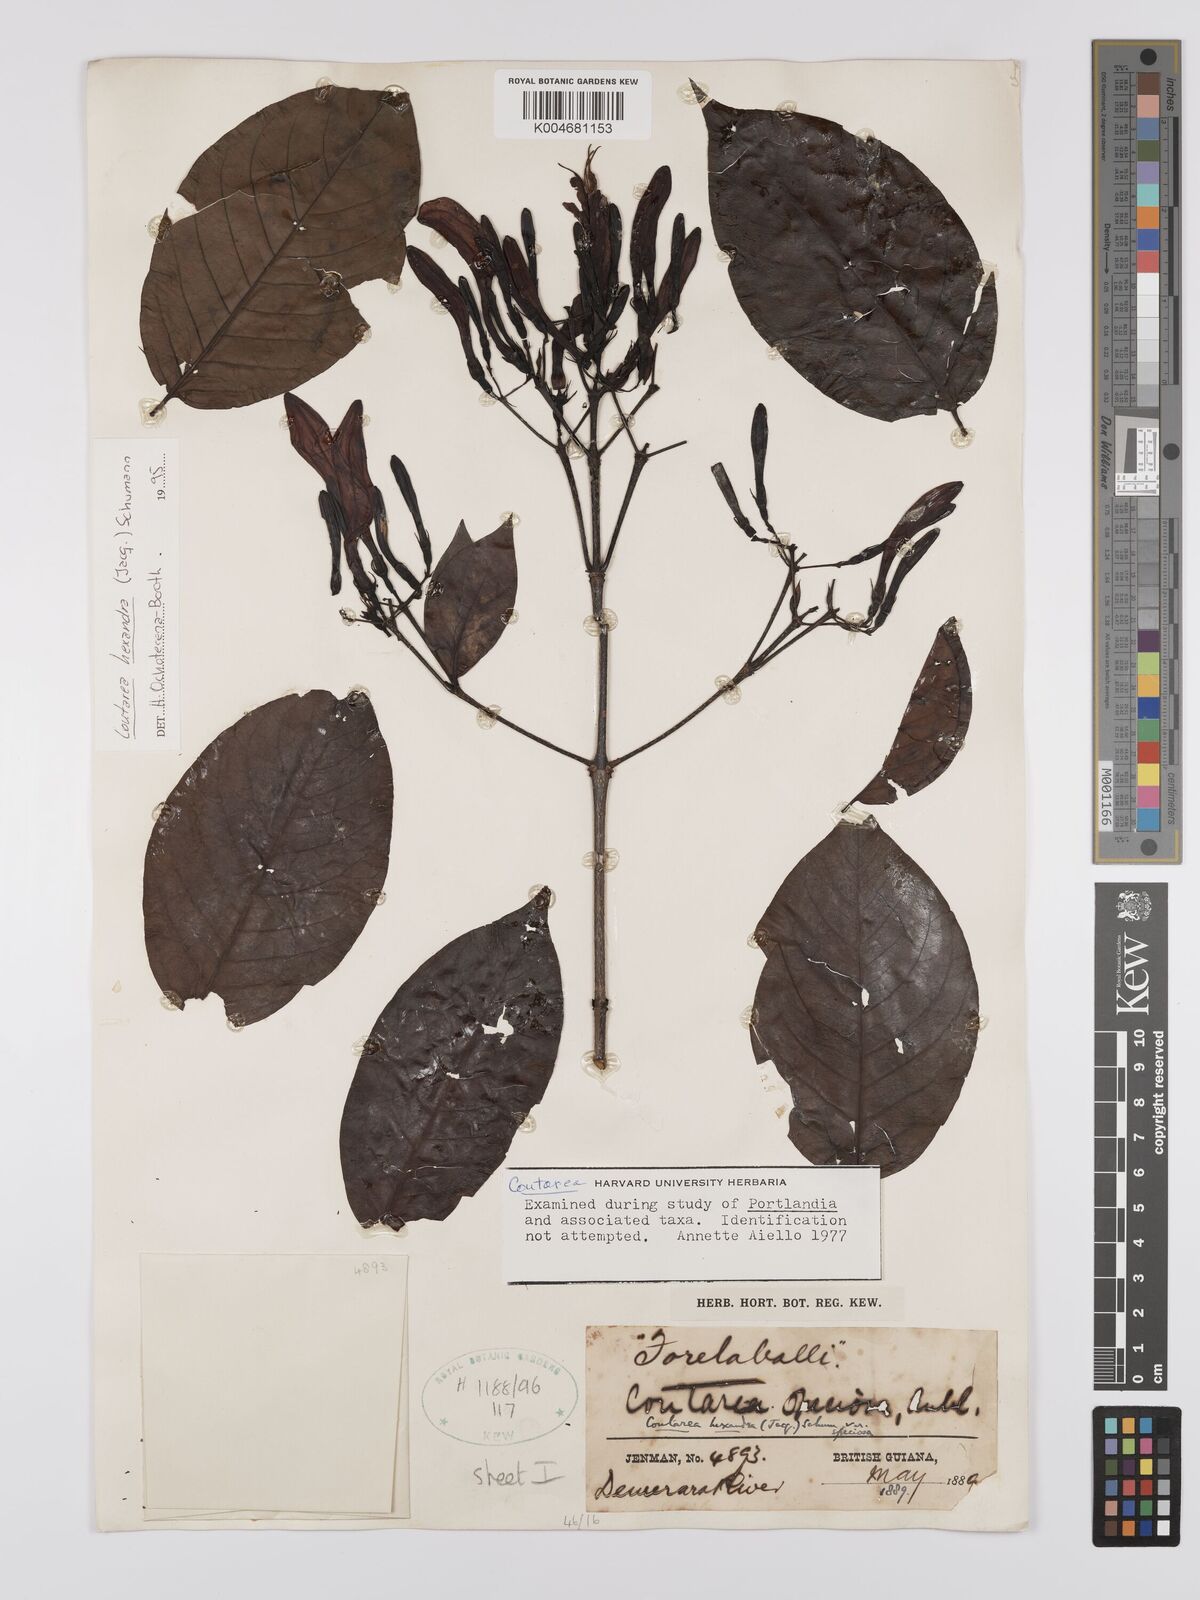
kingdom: Plantae
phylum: Tracheophyta
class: Magnoliopsida
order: Gentianales
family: Rubiaceae
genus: Coutarea
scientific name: Coutarea hexandra
